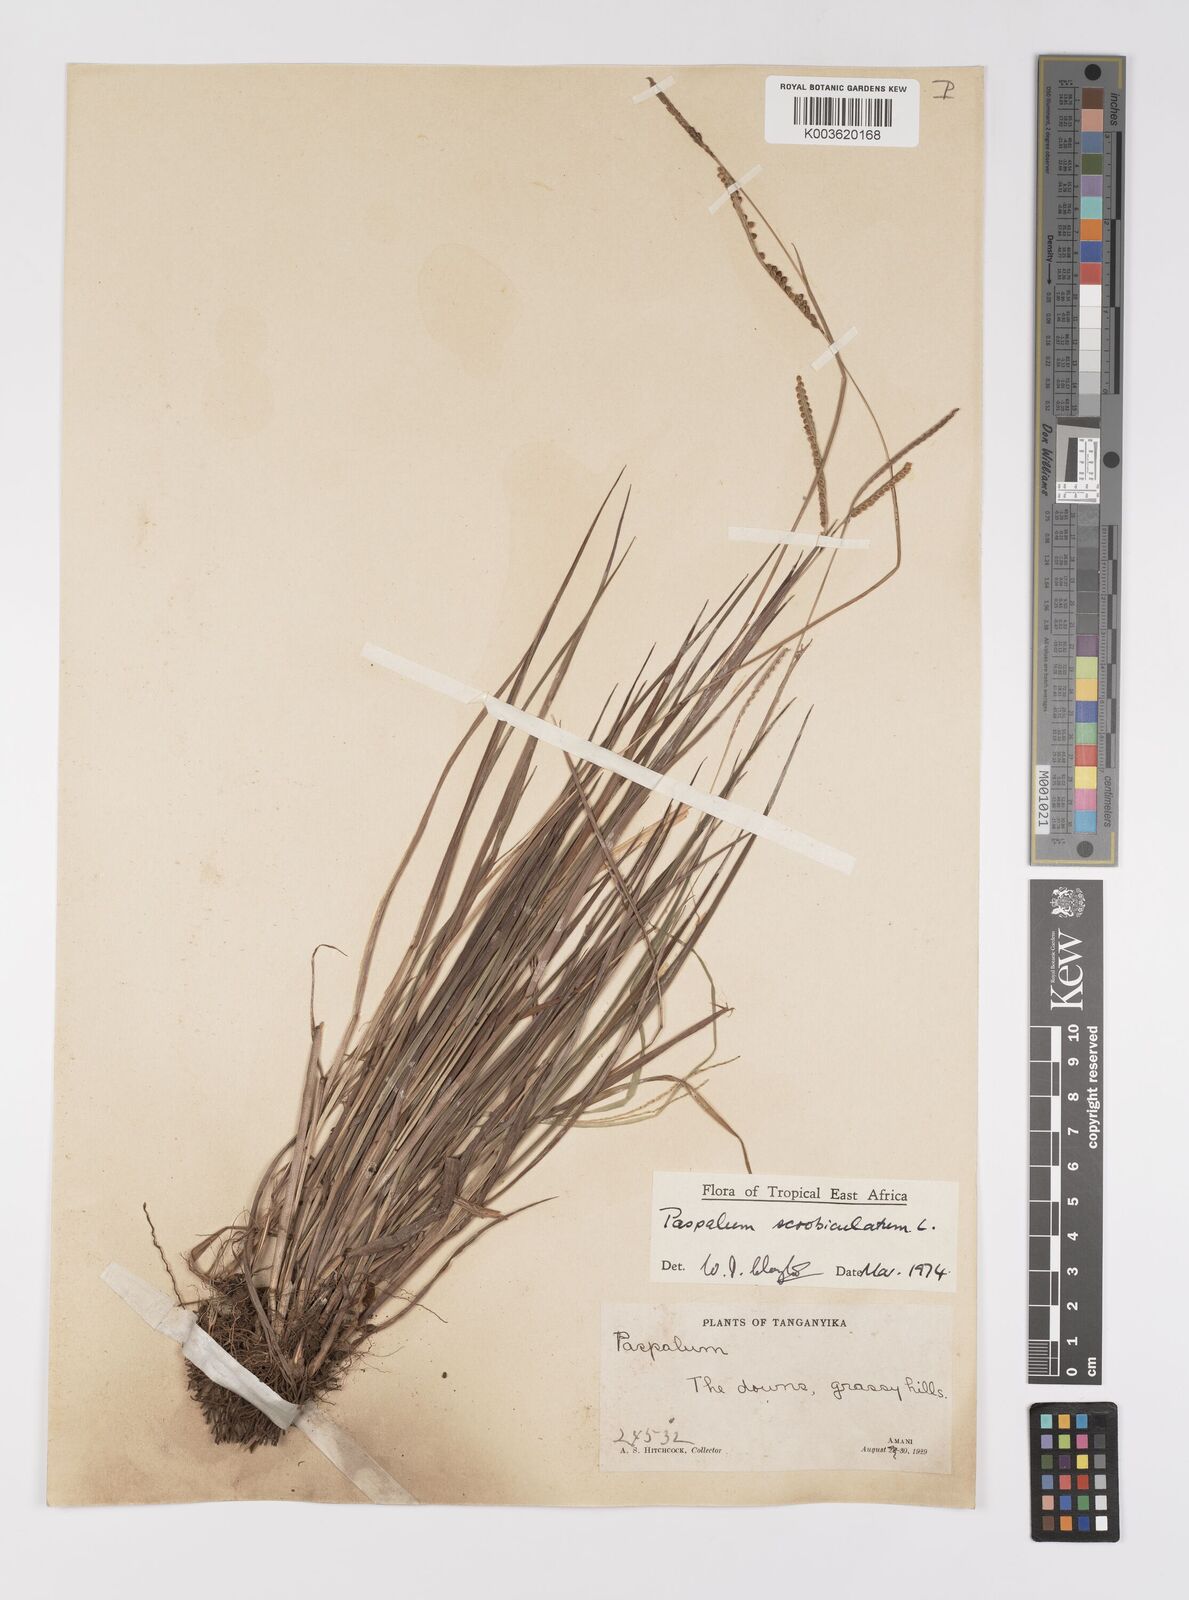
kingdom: Plantae
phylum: Tracheophyta
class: Liliopsida
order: Poales
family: Poaceae
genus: Paspalum
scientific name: Paspalum scrobiculatum
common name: Kodo millet
